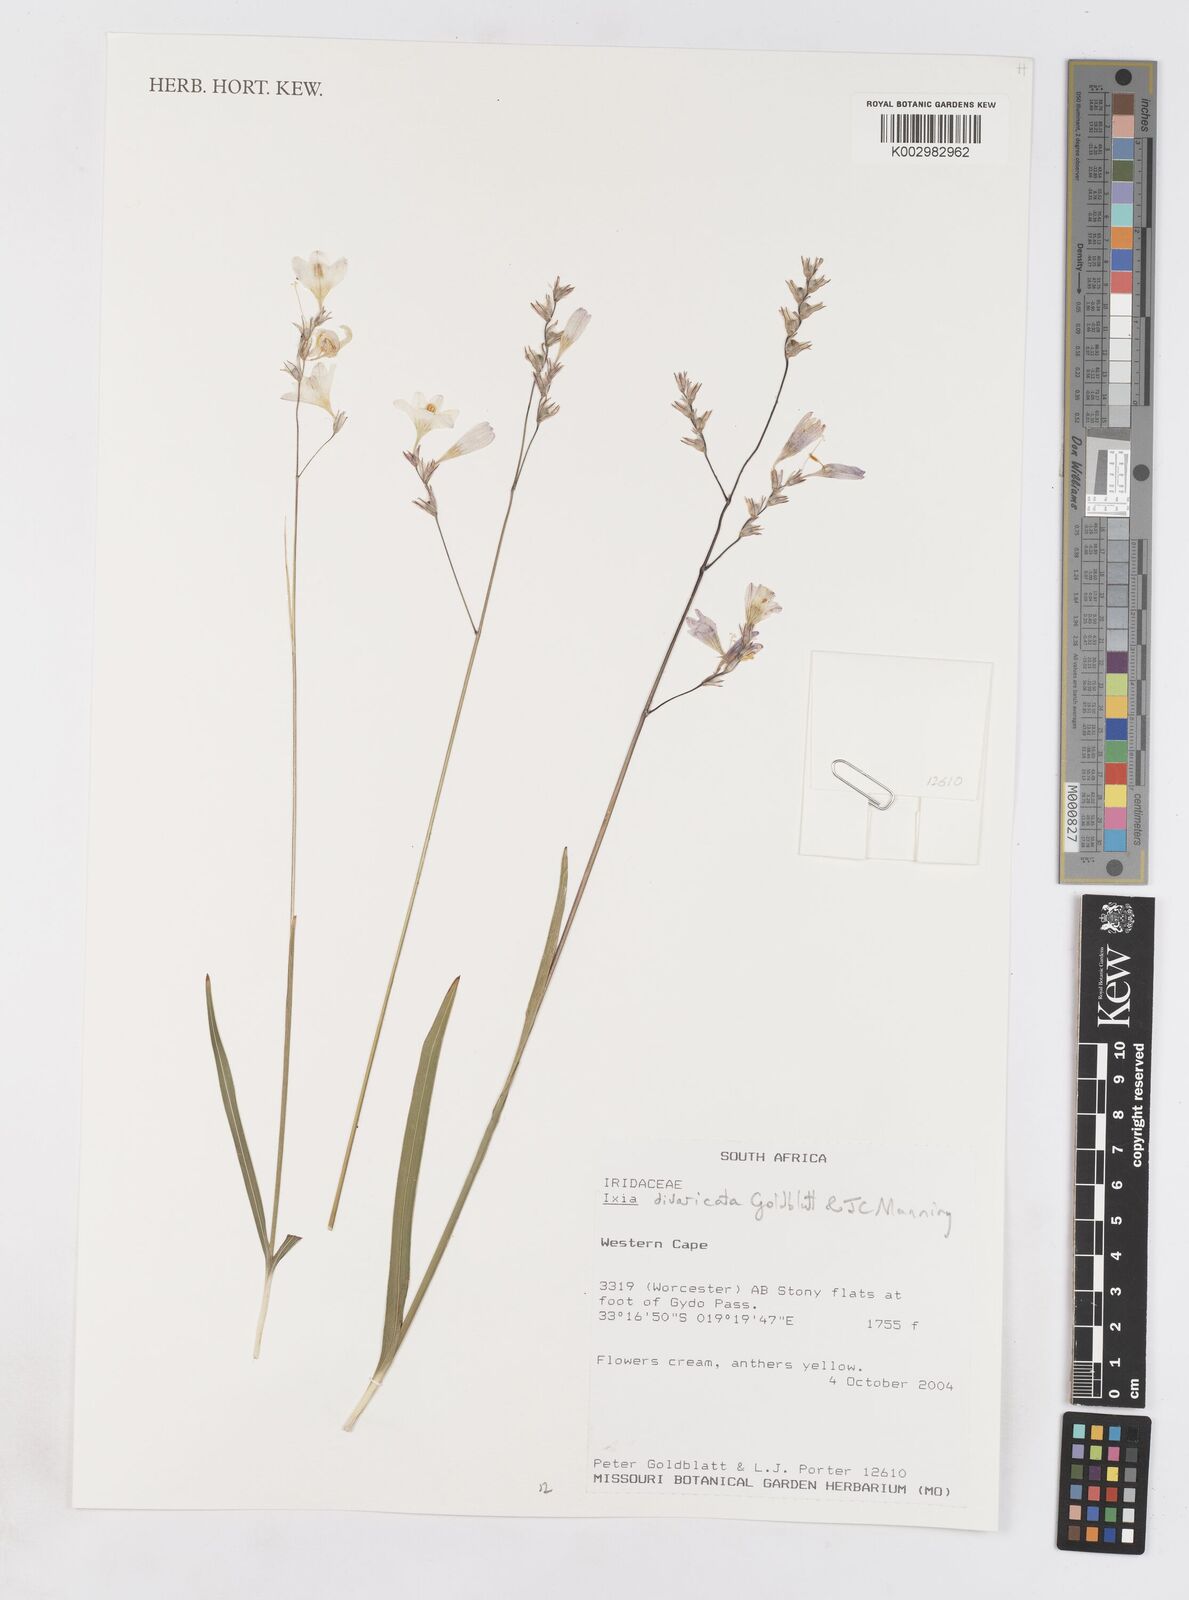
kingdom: Plantae
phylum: Tracheophyta
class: Liliopsida
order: Asparagales
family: Iridaceae
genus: Ixia
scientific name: Ixia divaricata
